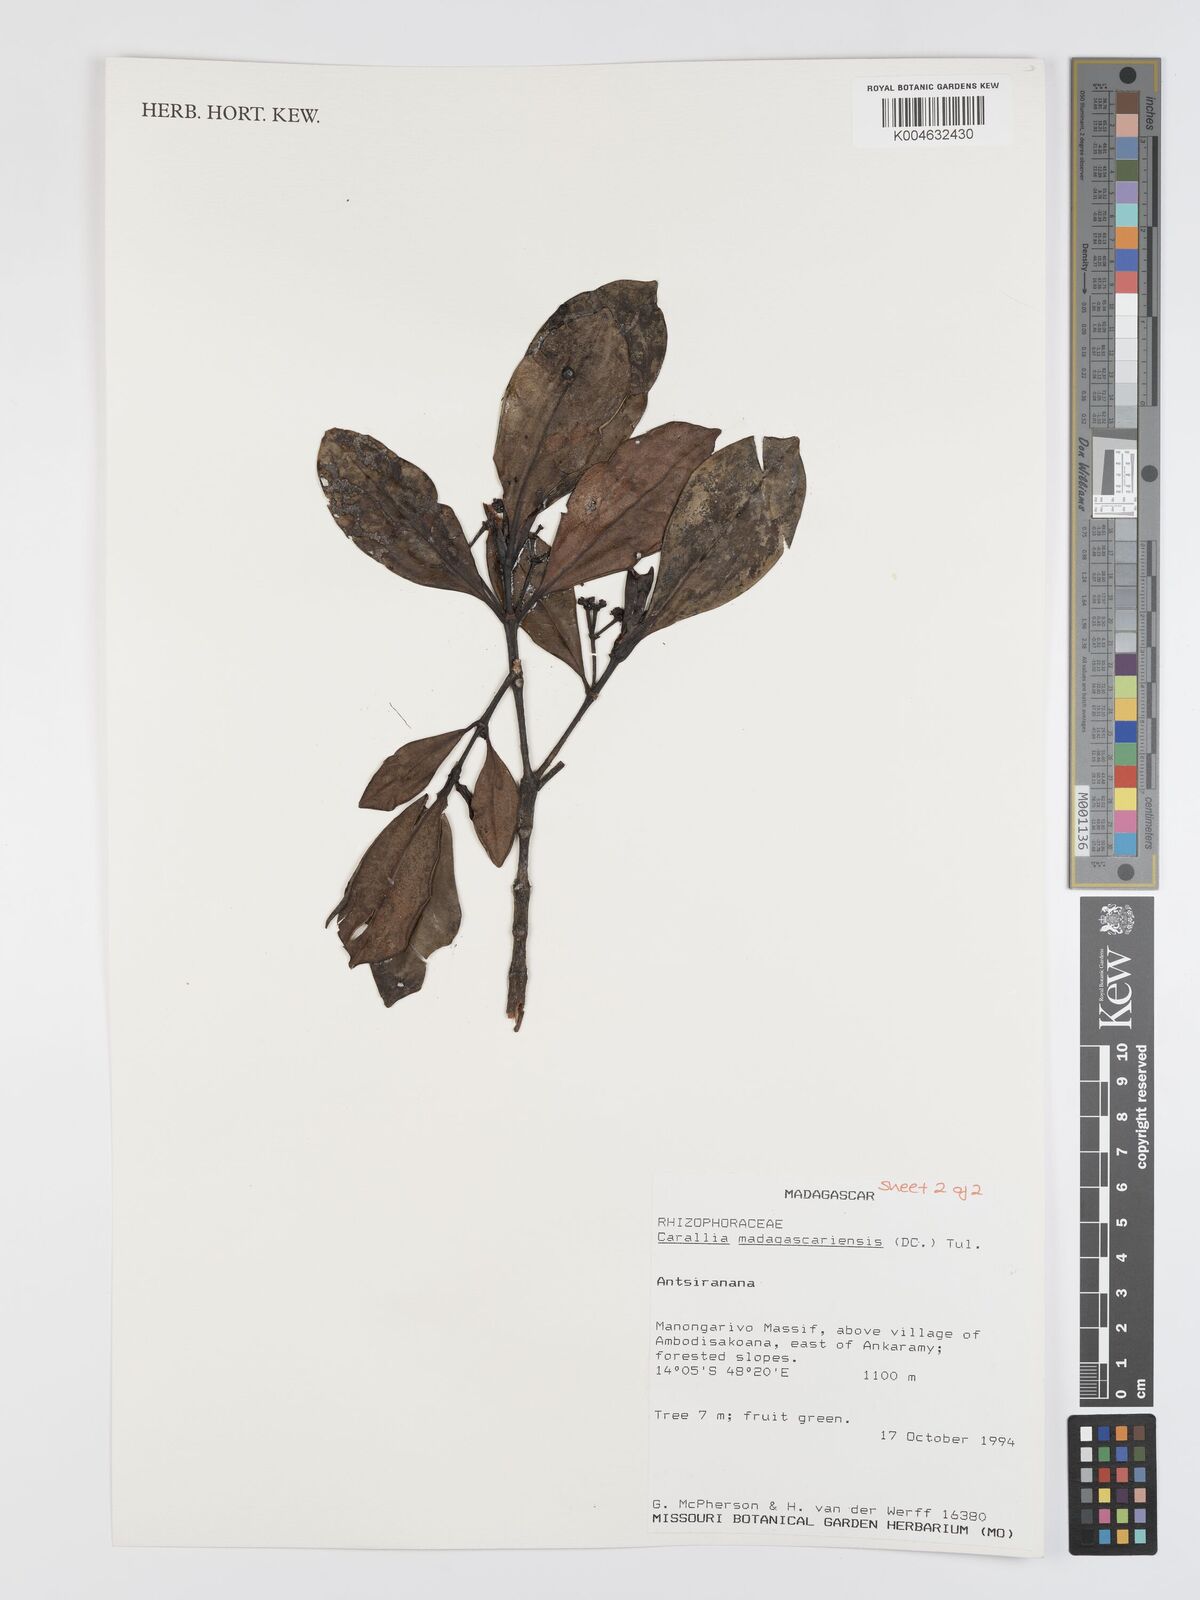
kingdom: Plantae
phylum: Tracheophyta
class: Magnoliopsida
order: Malpighiales
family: Rhizophoraceae
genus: Carallia
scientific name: Carallia brachiata
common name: Carallawood
